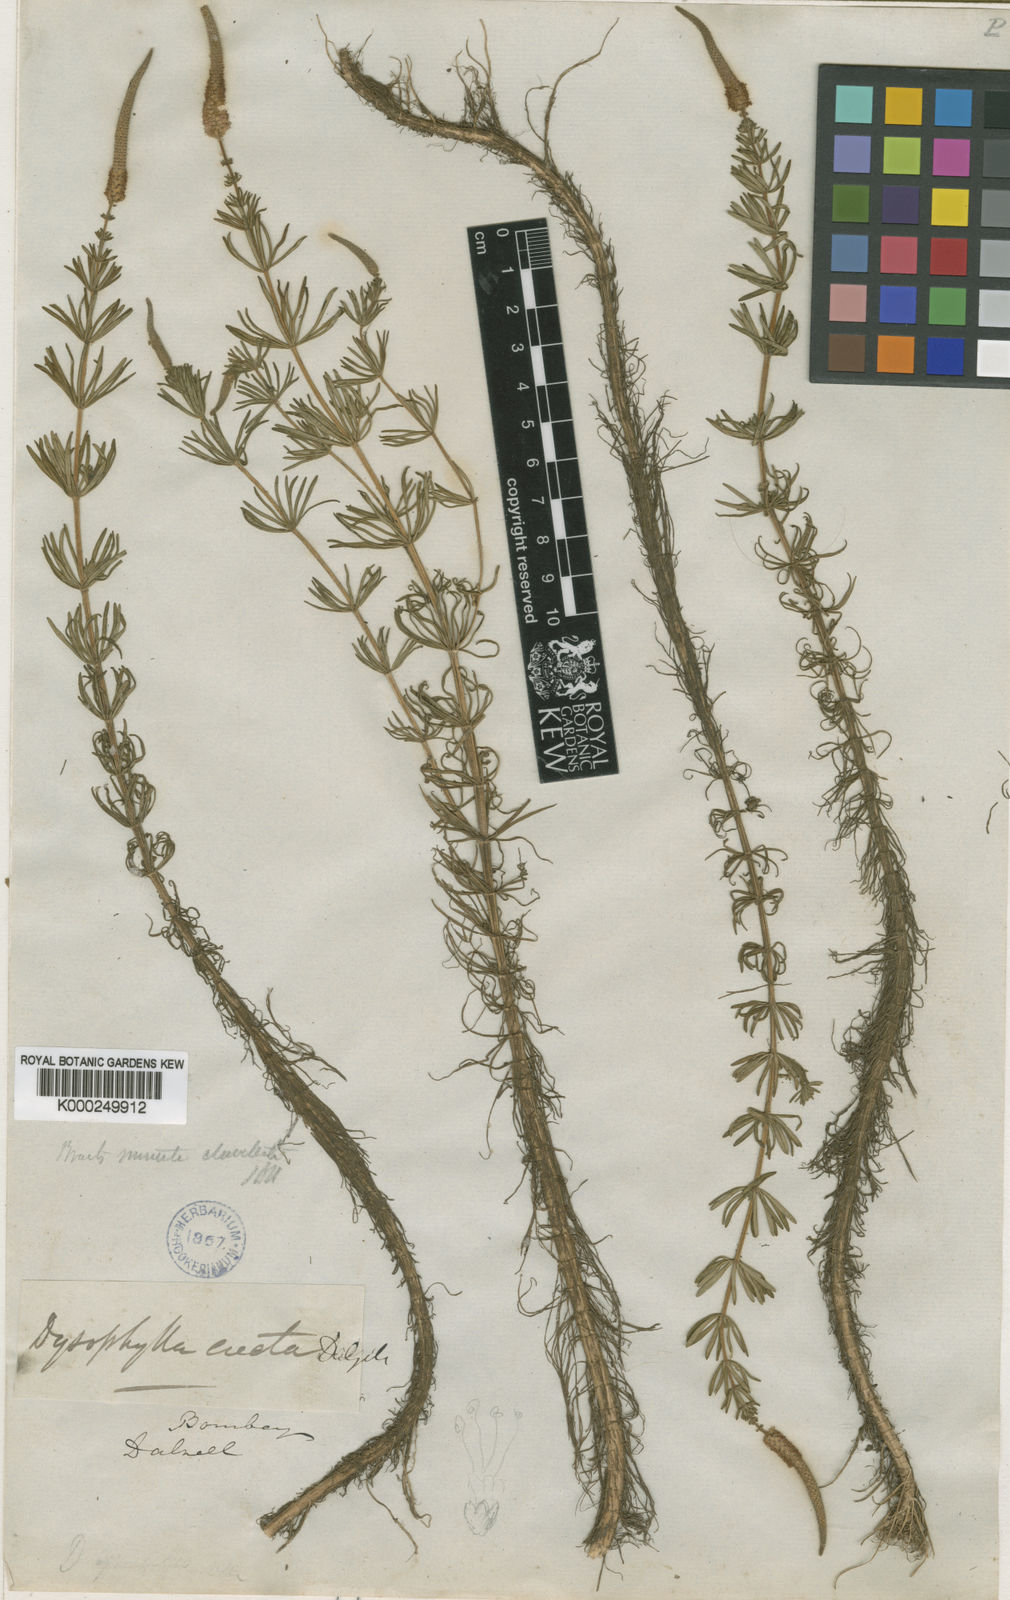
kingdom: Plantae
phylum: Tracheophyta
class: Magnoliopsida
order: Lamiales
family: Lamiaceae
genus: Pogostemon
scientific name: Pogostemon erectus
